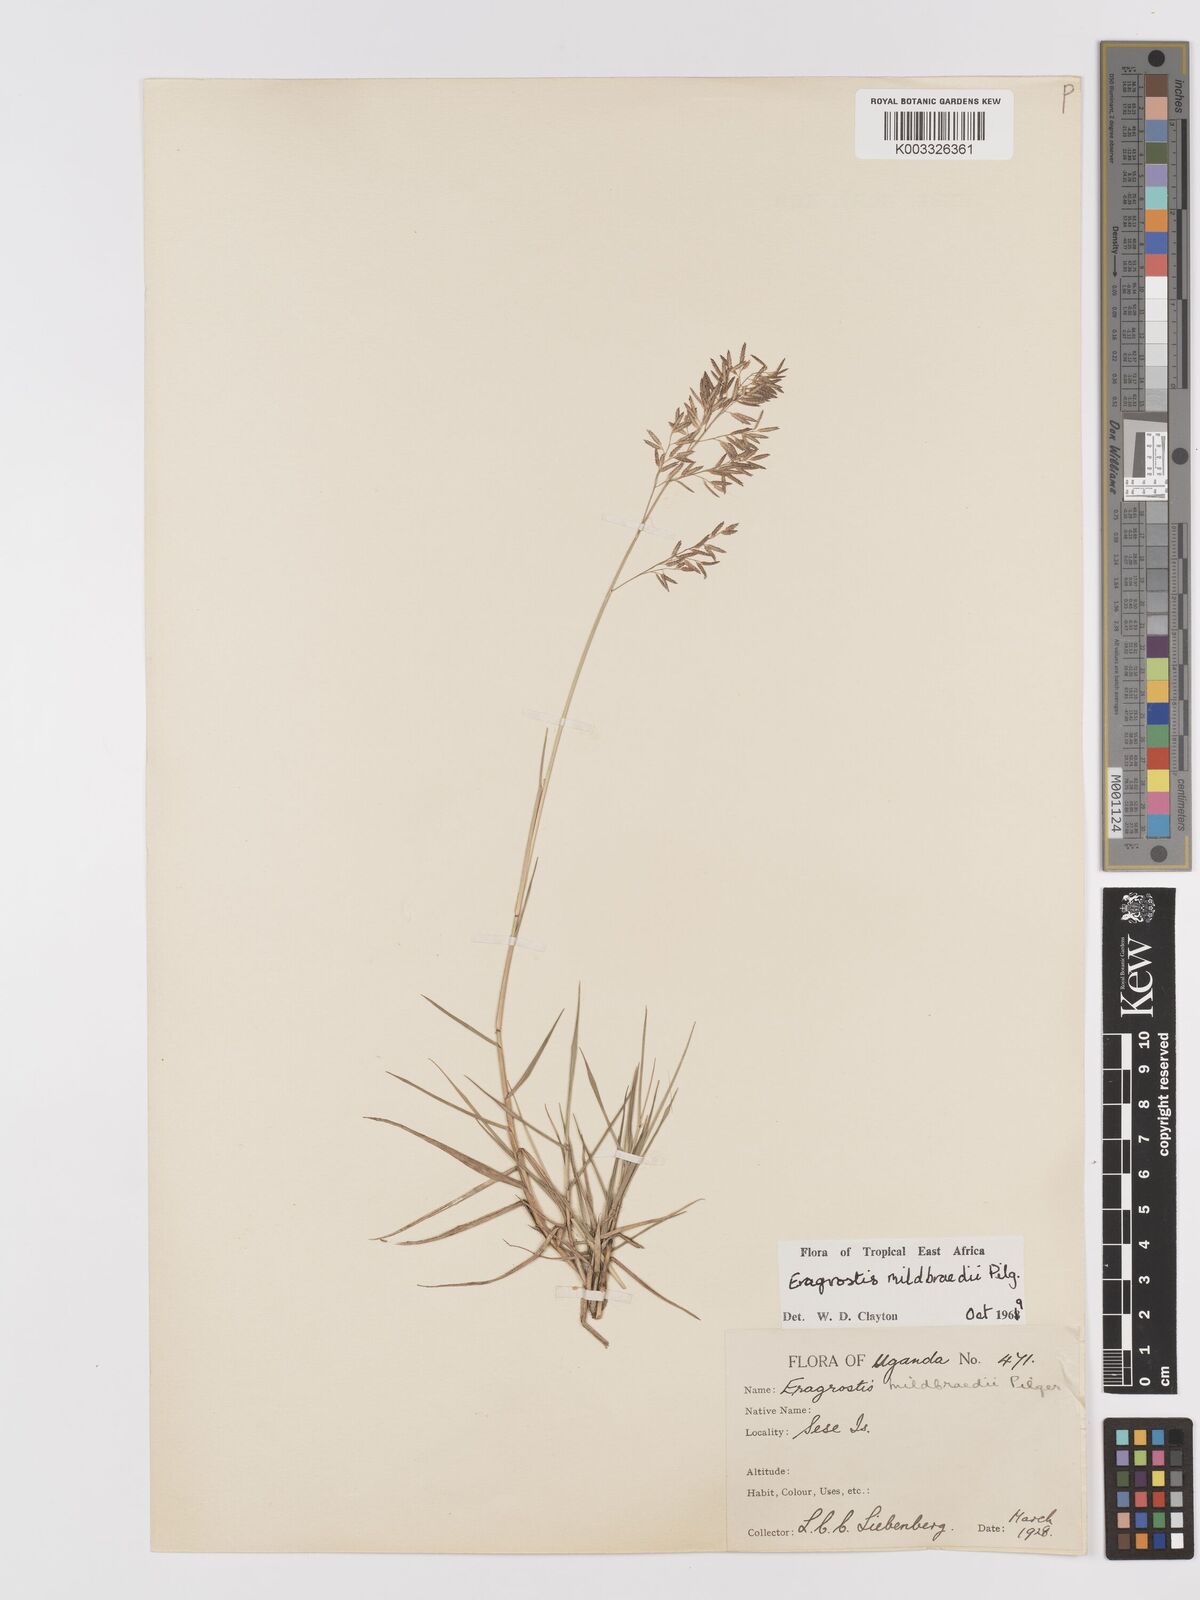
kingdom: Plantae
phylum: Tracheophyta
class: Liliopsida
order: Poales
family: Poaceae
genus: Eragrostis
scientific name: Eragrostis mildbraedii
